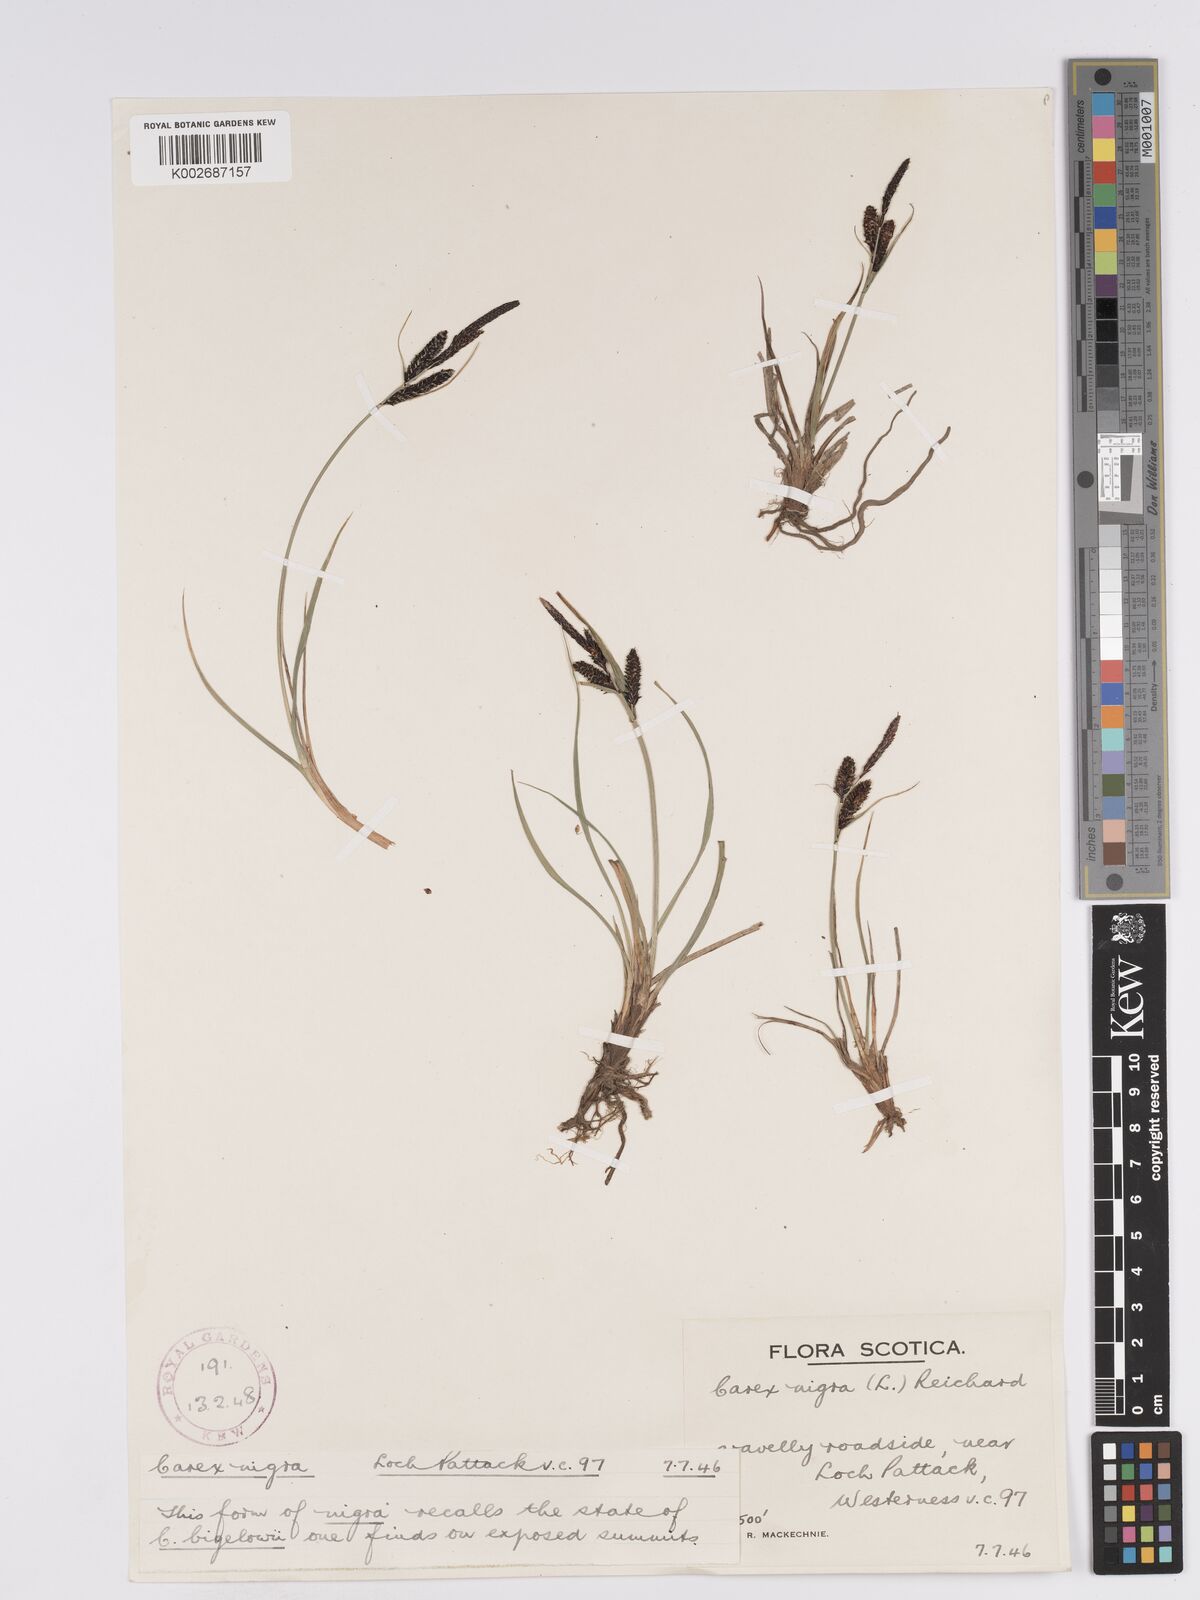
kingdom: Plantae
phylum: Tracheophyta
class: Liliopsida
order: Poales
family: Cyperaceae
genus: Carex
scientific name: Carex nigra
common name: Common sedge
